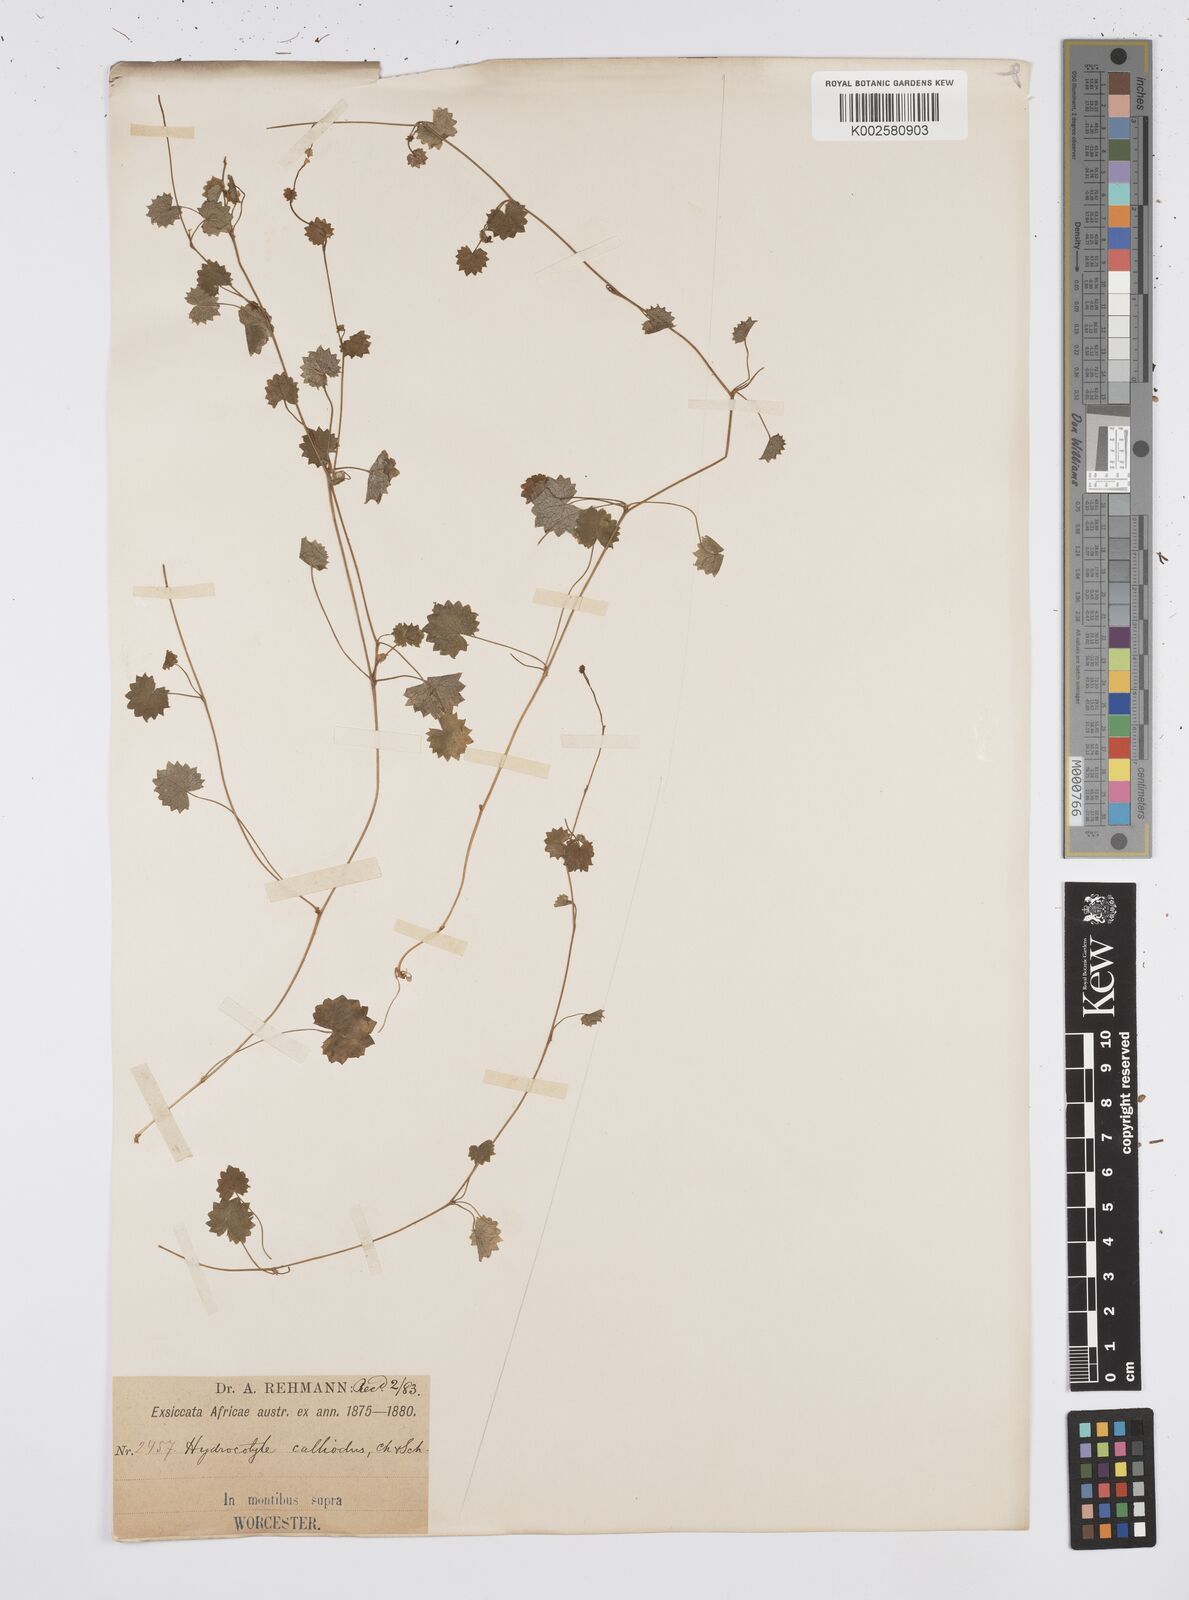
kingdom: Plantae
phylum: Tracheophyta
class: Magnoliopsida
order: Apiales
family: Apiaceae
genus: Centella
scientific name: Centella
